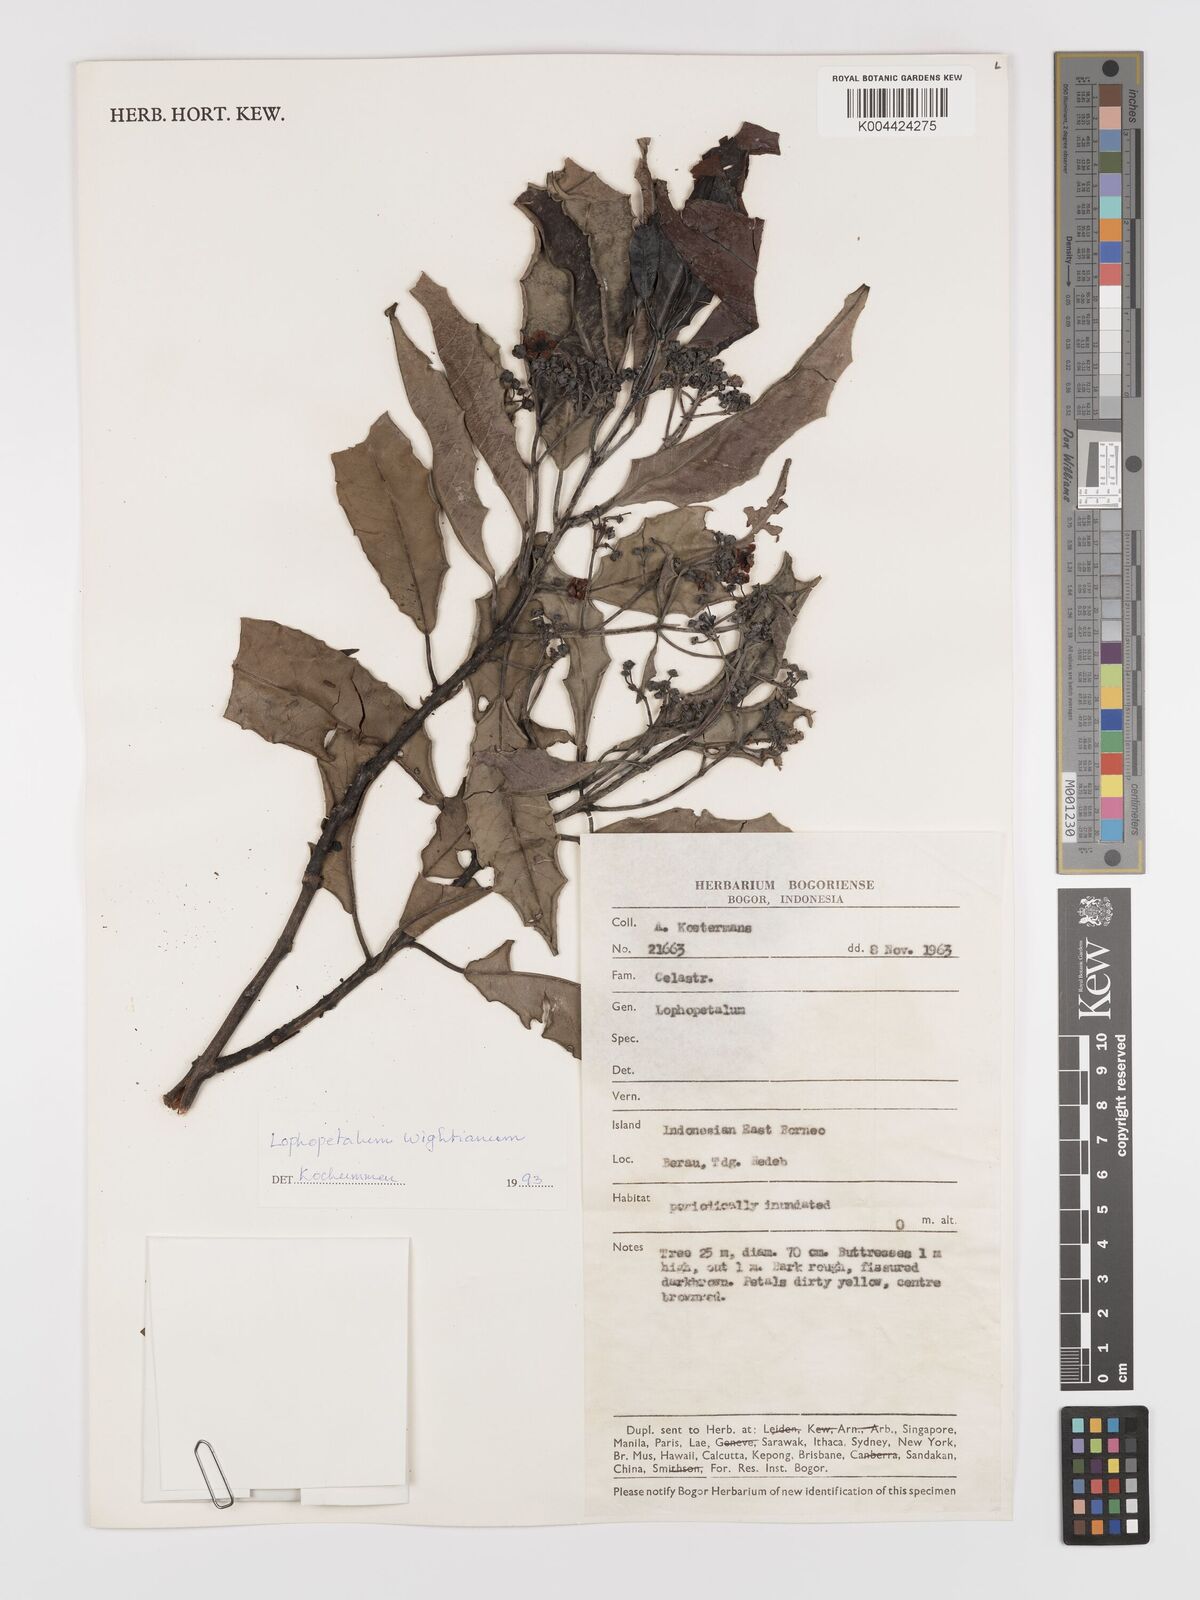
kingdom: Plantae
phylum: Tracheophyta
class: Magnoliopsida
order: Celastrales
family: Celastraceae
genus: Lophopetalum
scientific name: Lophopetalum wightianum
